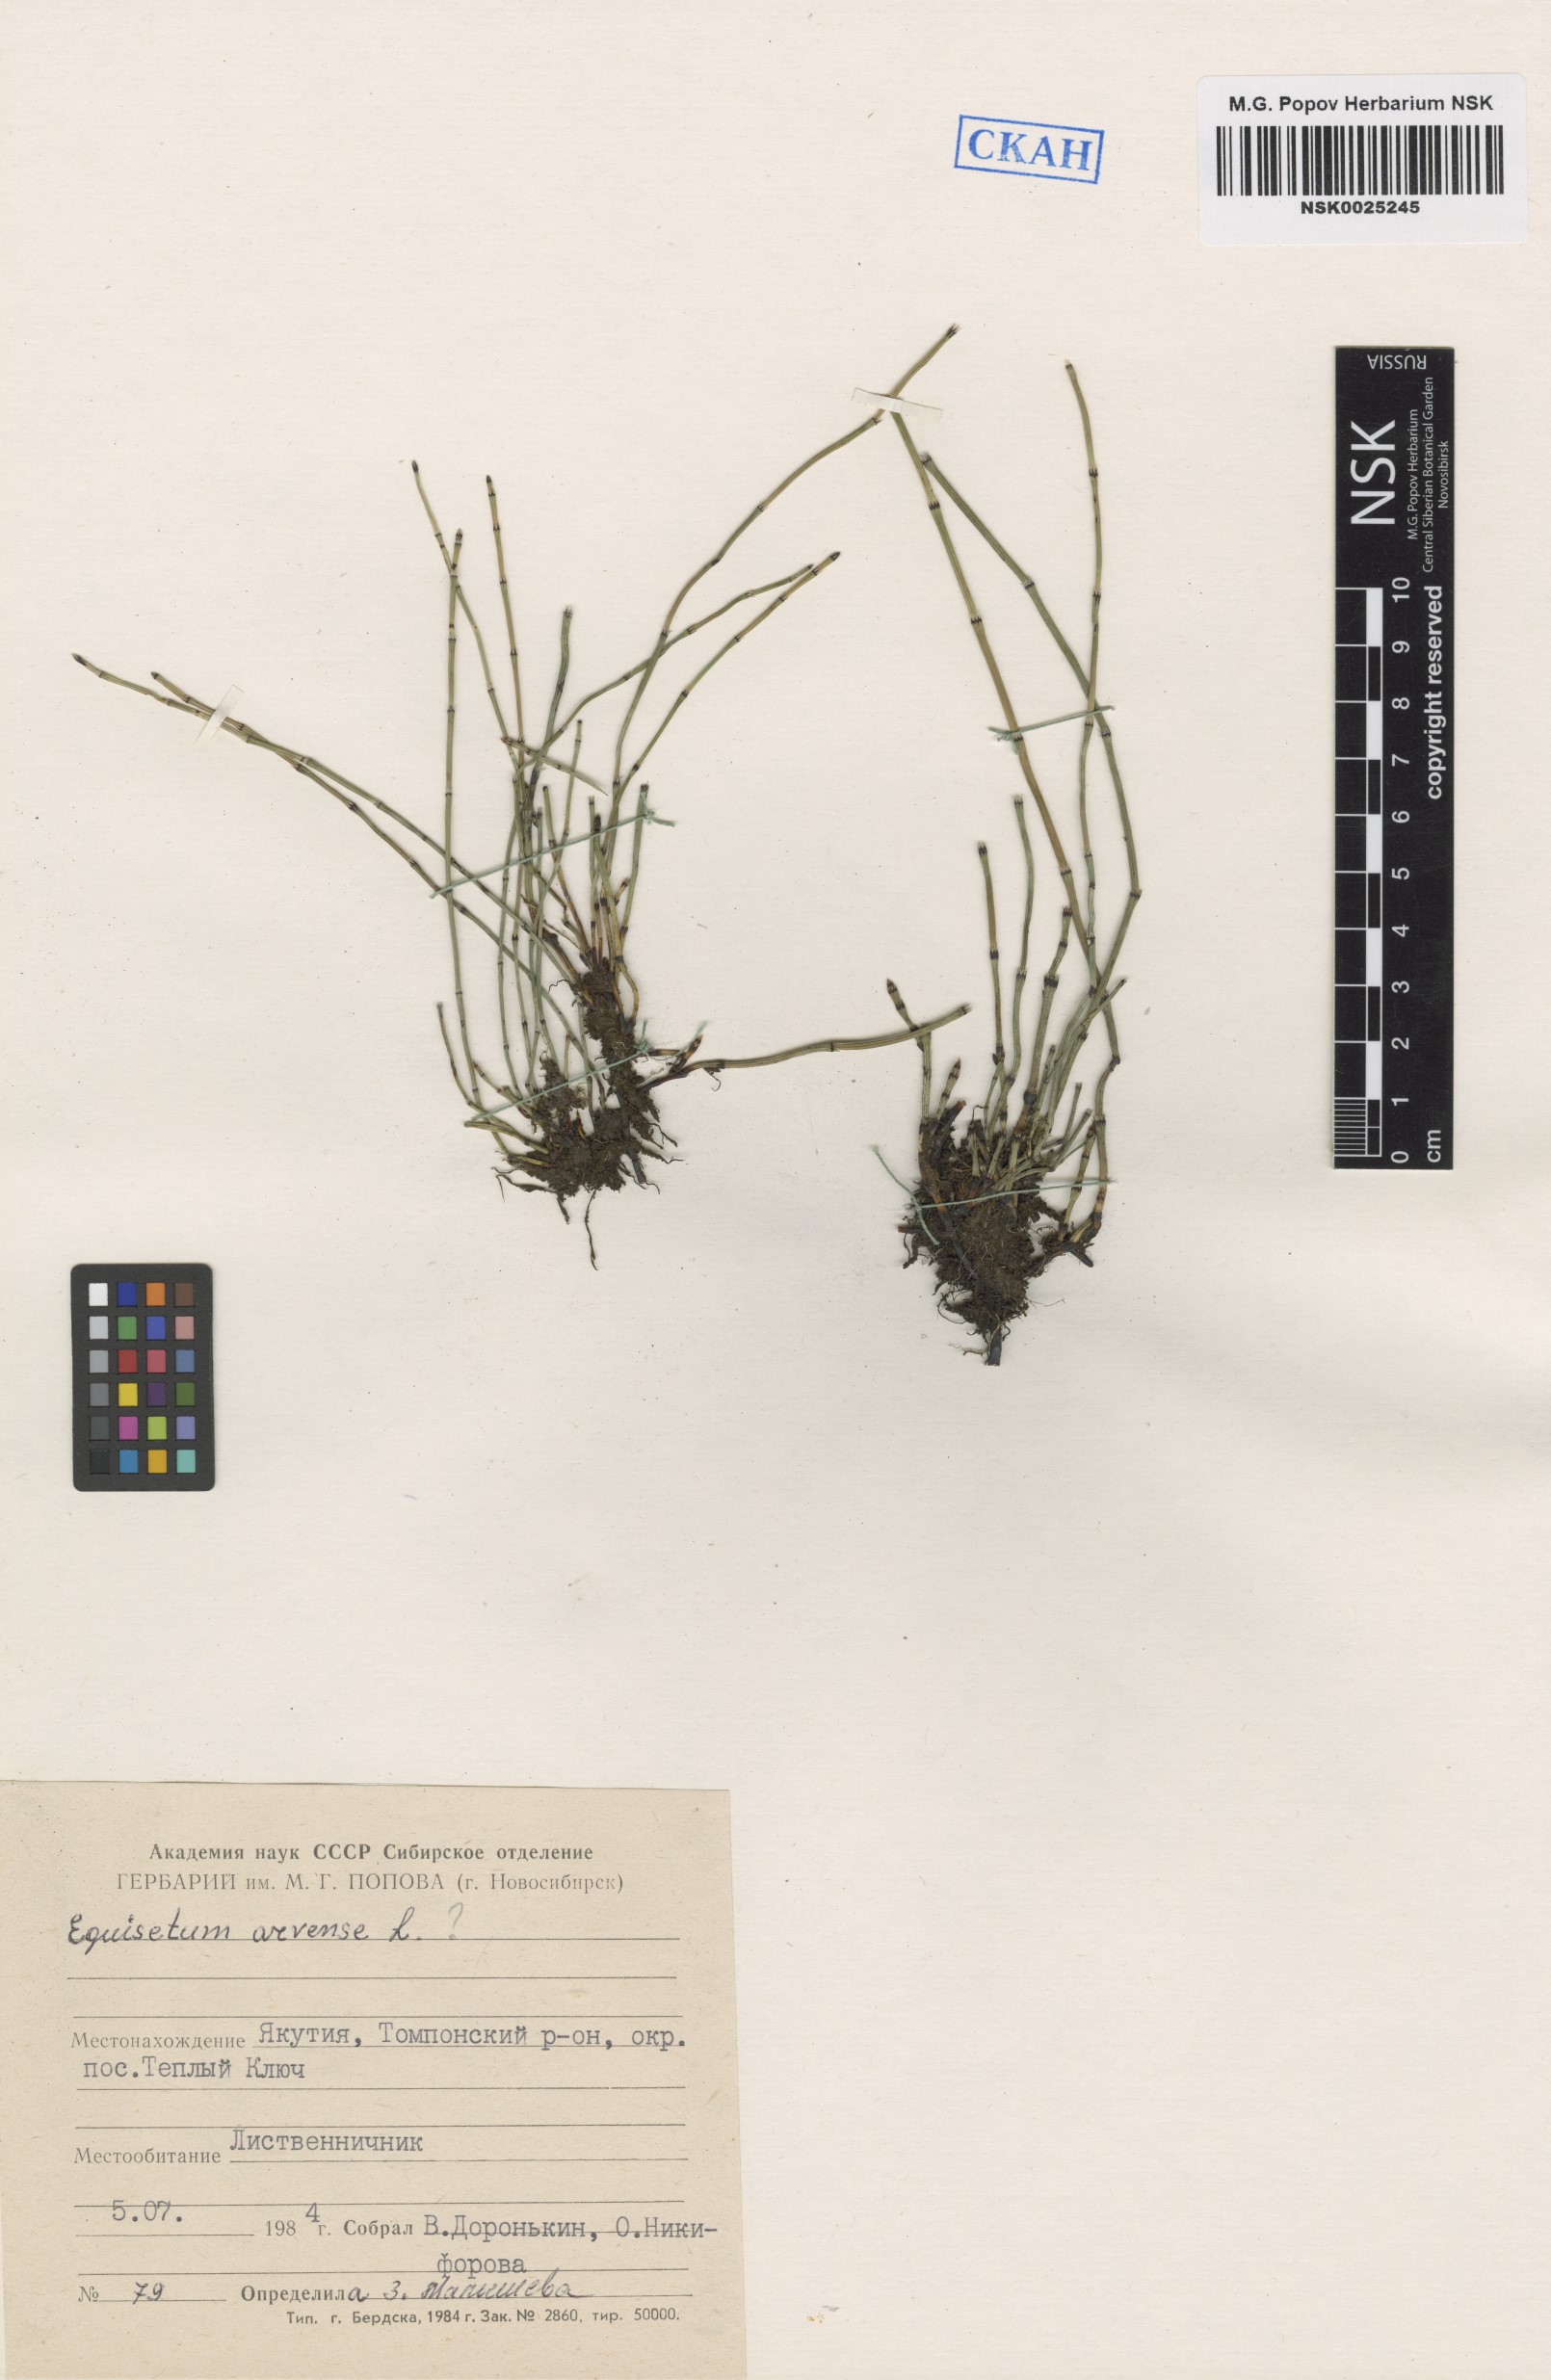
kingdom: Plantae
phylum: Tracheophyta
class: Polypodiopsida
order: Equisetales
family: Equisetaceae
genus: Equisetum
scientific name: Equisetum arvense
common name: Field horsetail
